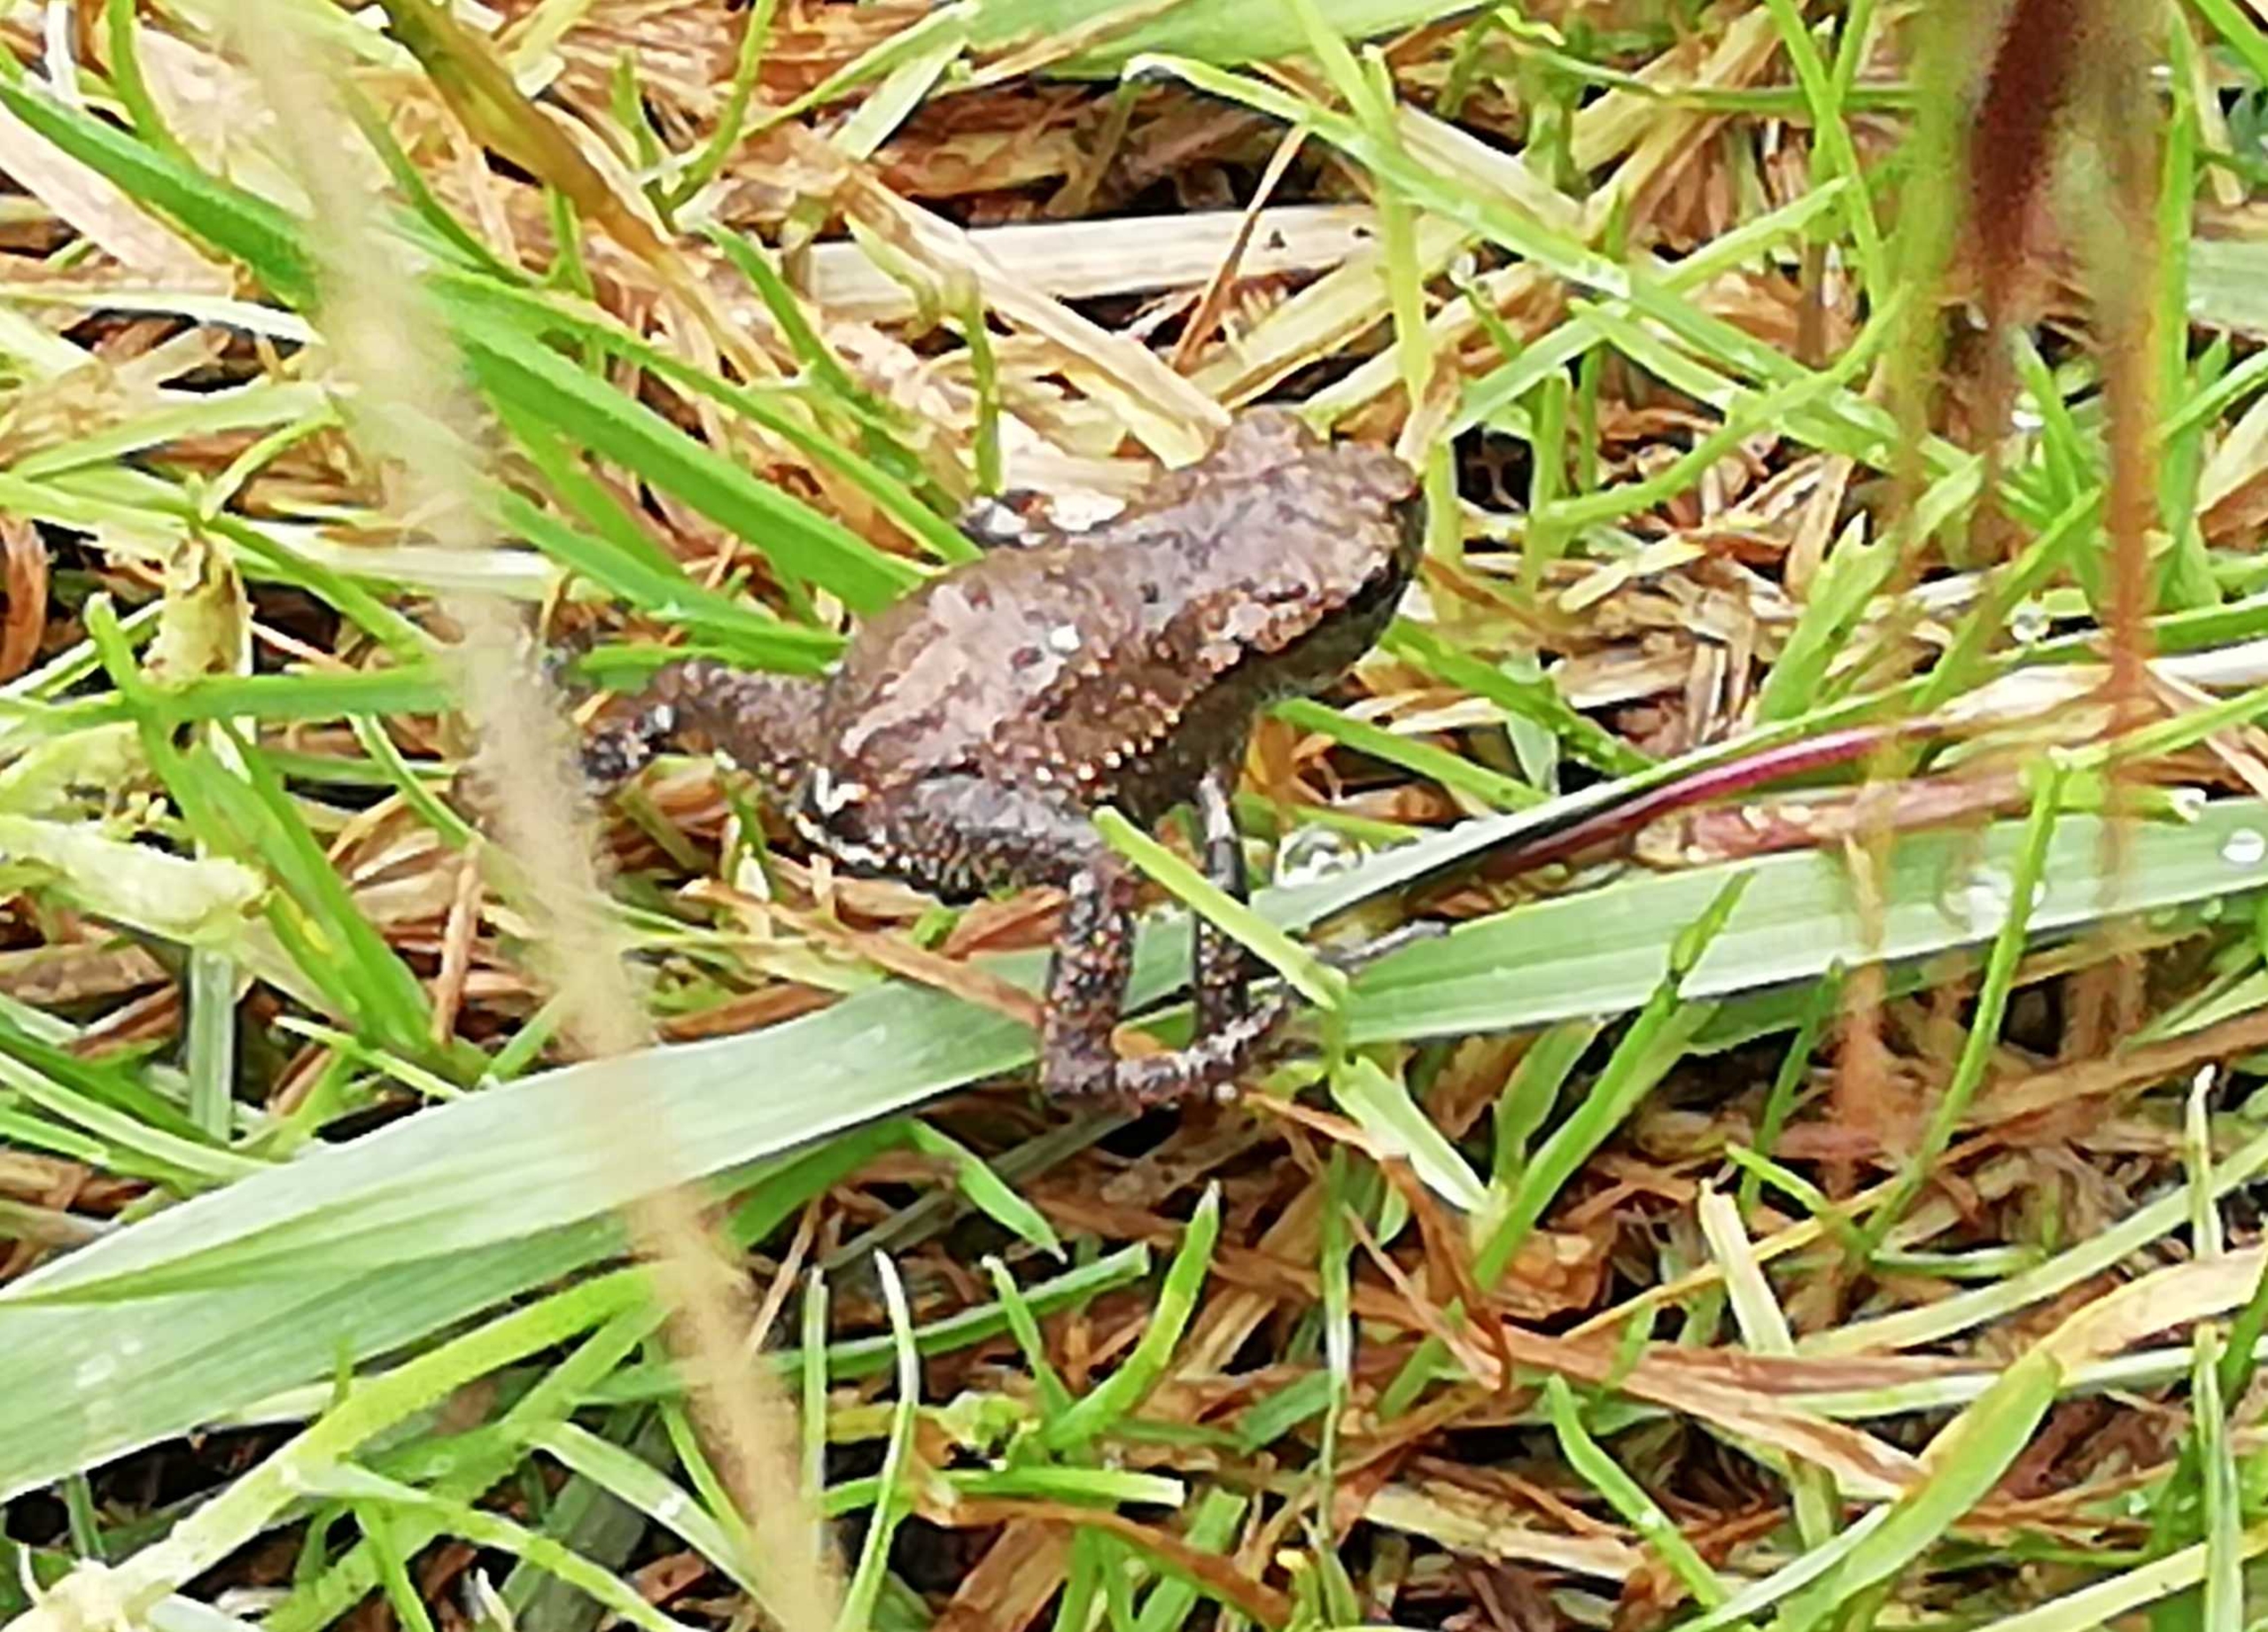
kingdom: Animalia
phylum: Chordata
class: Amphibia
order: Anura
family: Bufonidae
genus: Bufo
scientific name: Bufo bufo
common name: Skrubtudse
